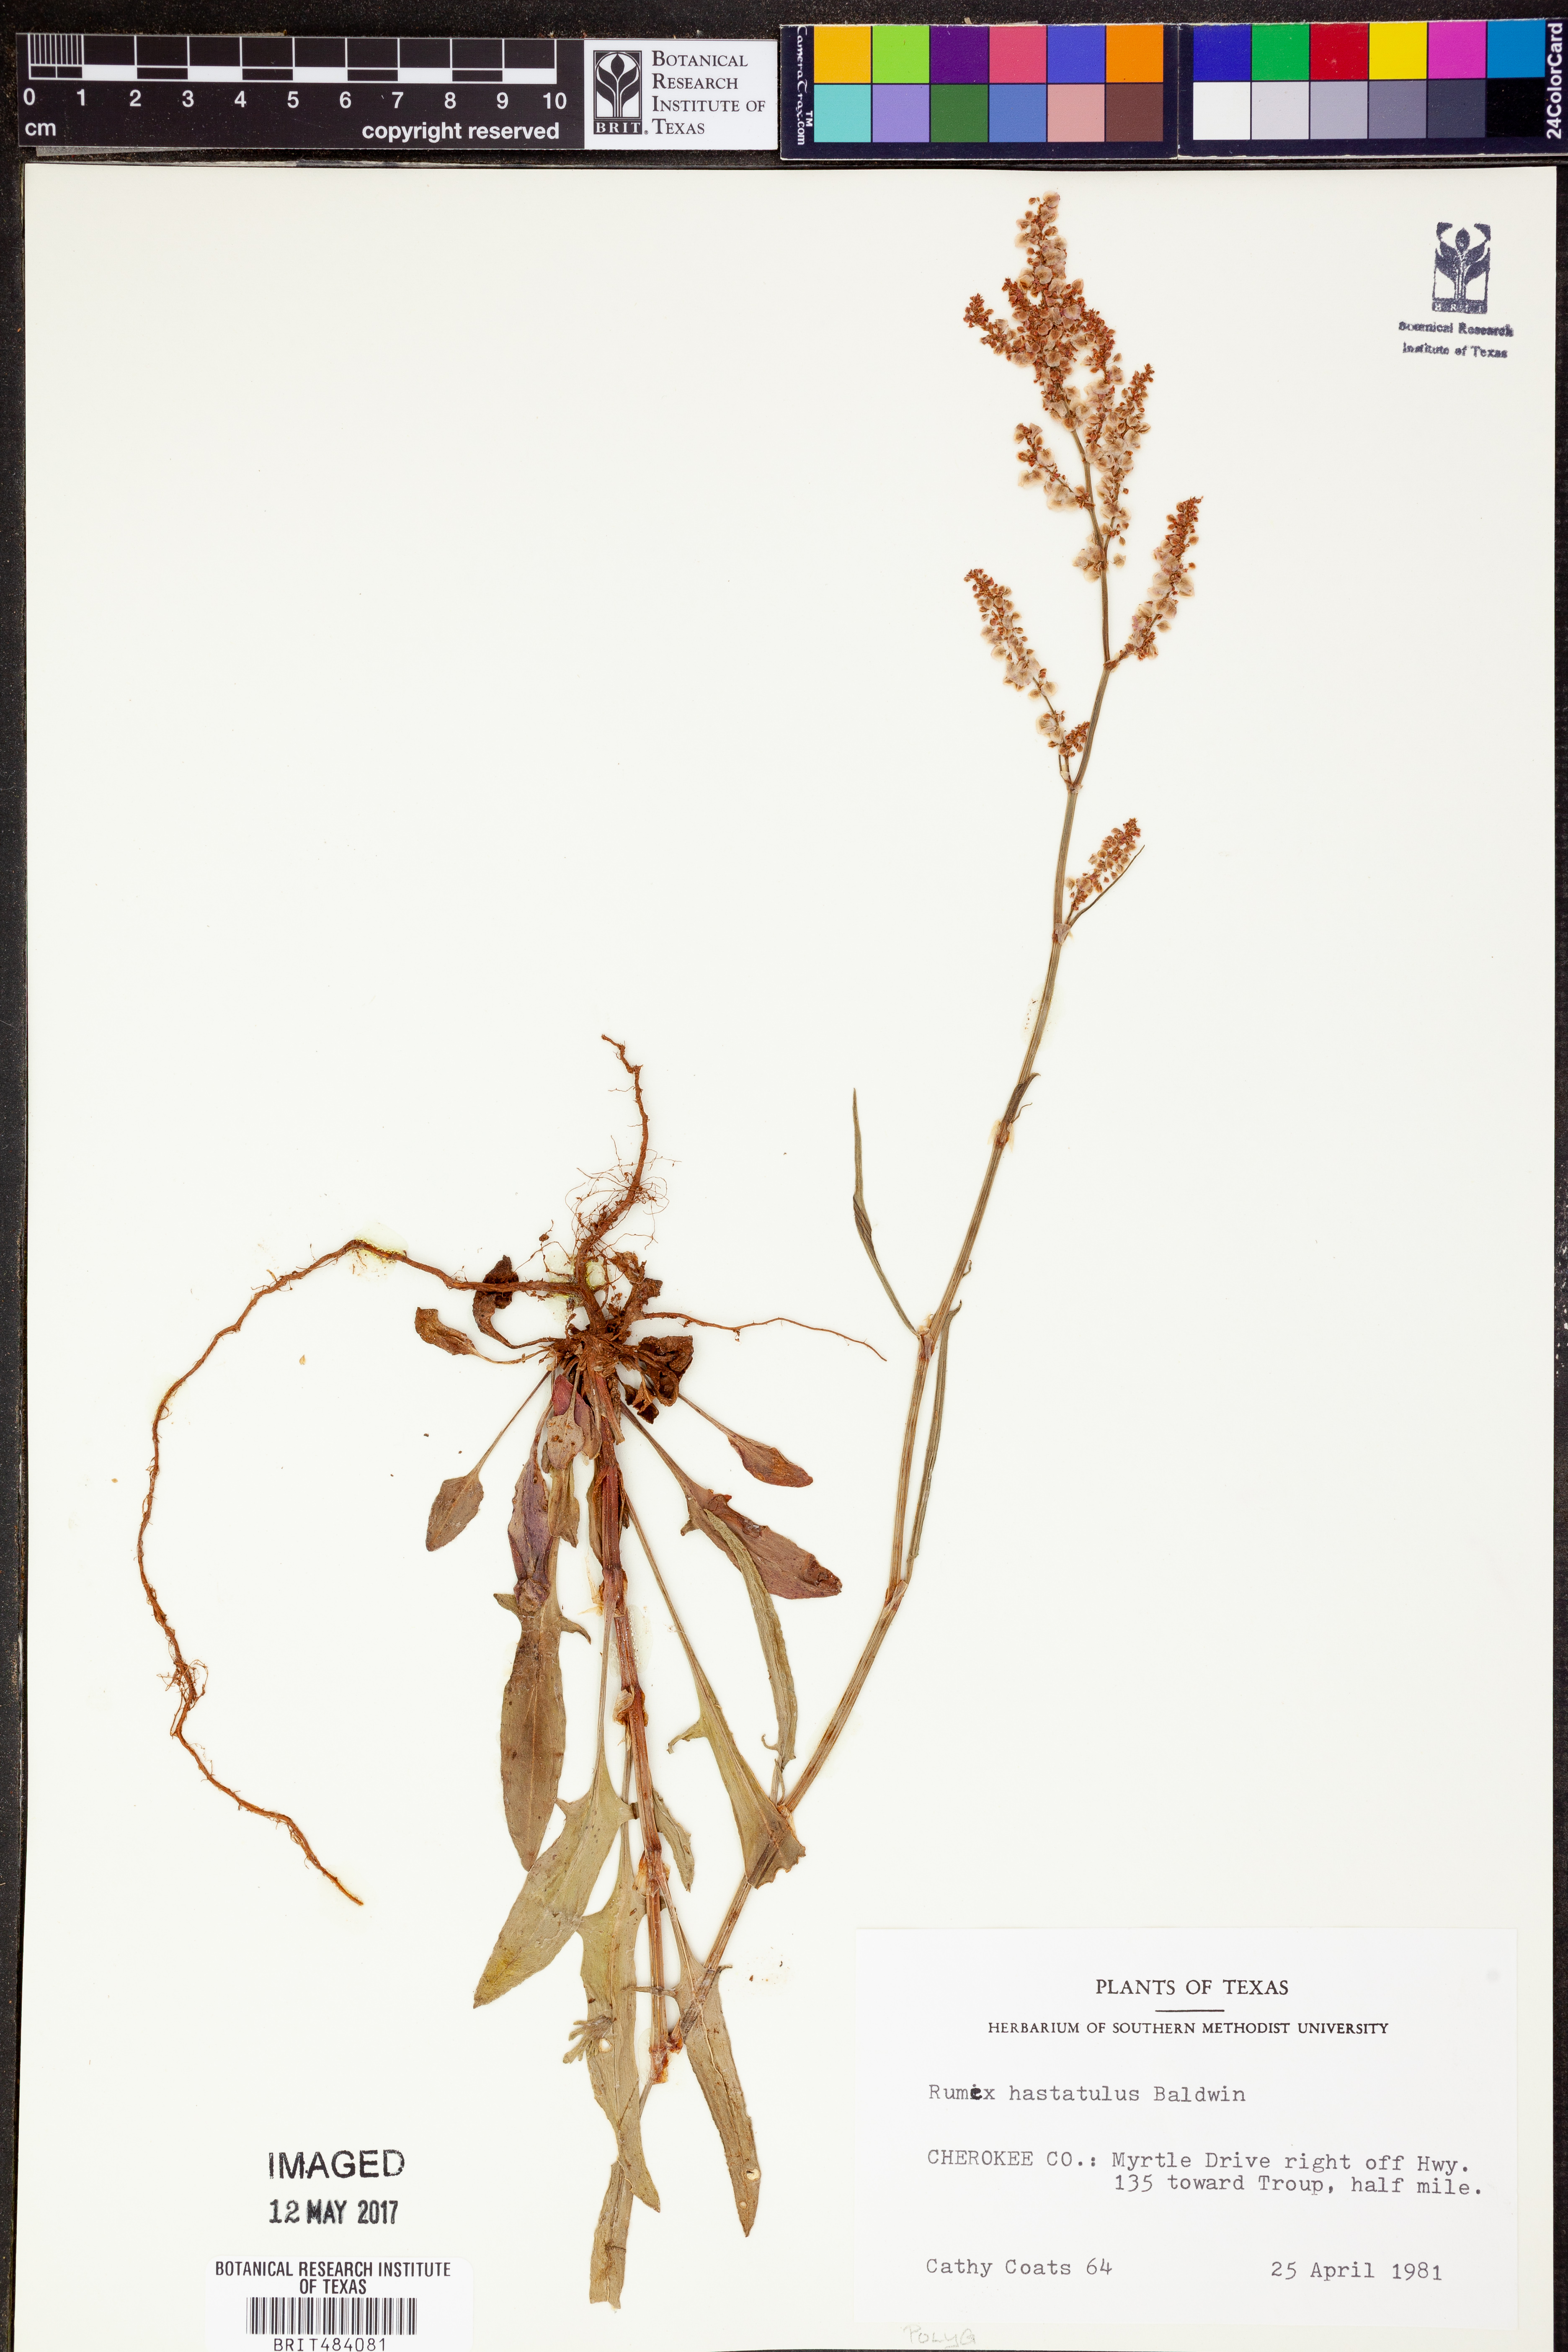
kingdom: Plantae
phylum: Tracheophyta
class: Magnoliopsida
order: Caryophyllales
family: Polygonaceae
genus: Rumex
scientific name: Rumex hastatulus
